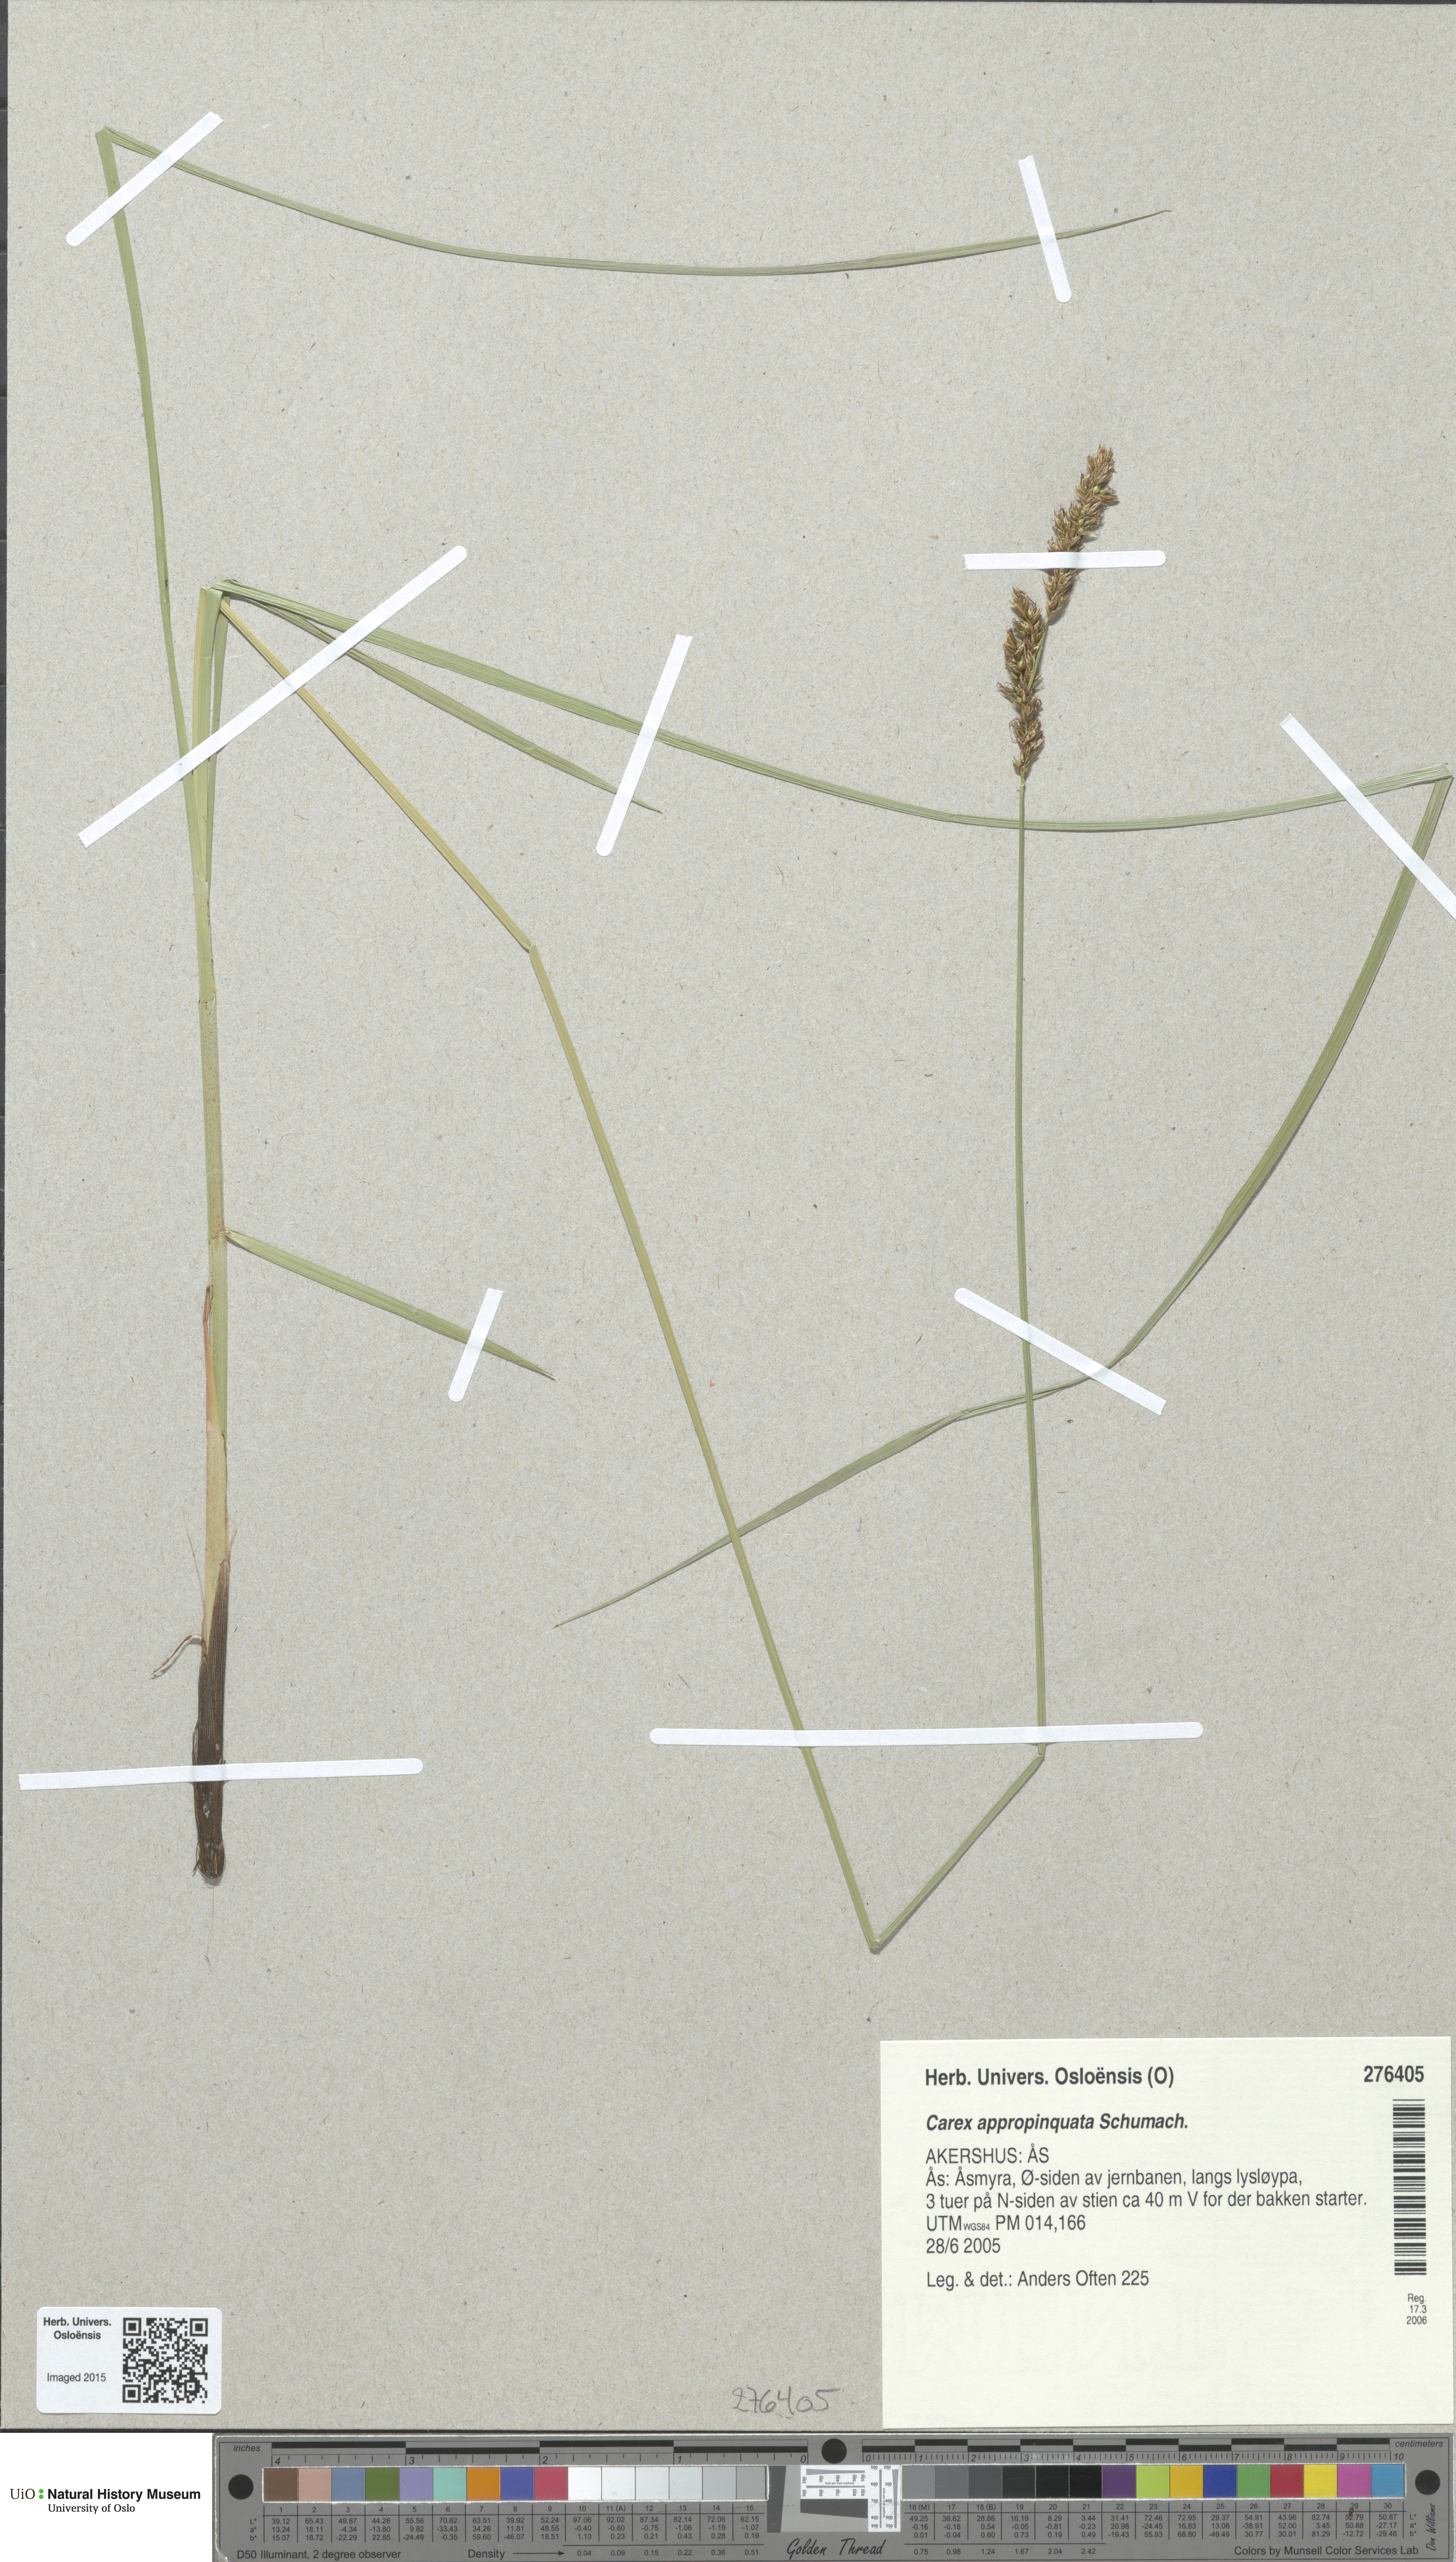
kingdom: Plantae
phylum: Tracheophyta
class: Liliopsida
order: Poales
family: Cyperaceae
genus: Carex
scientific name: Carex appropinquata
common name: Fibrous tussock-sedge
